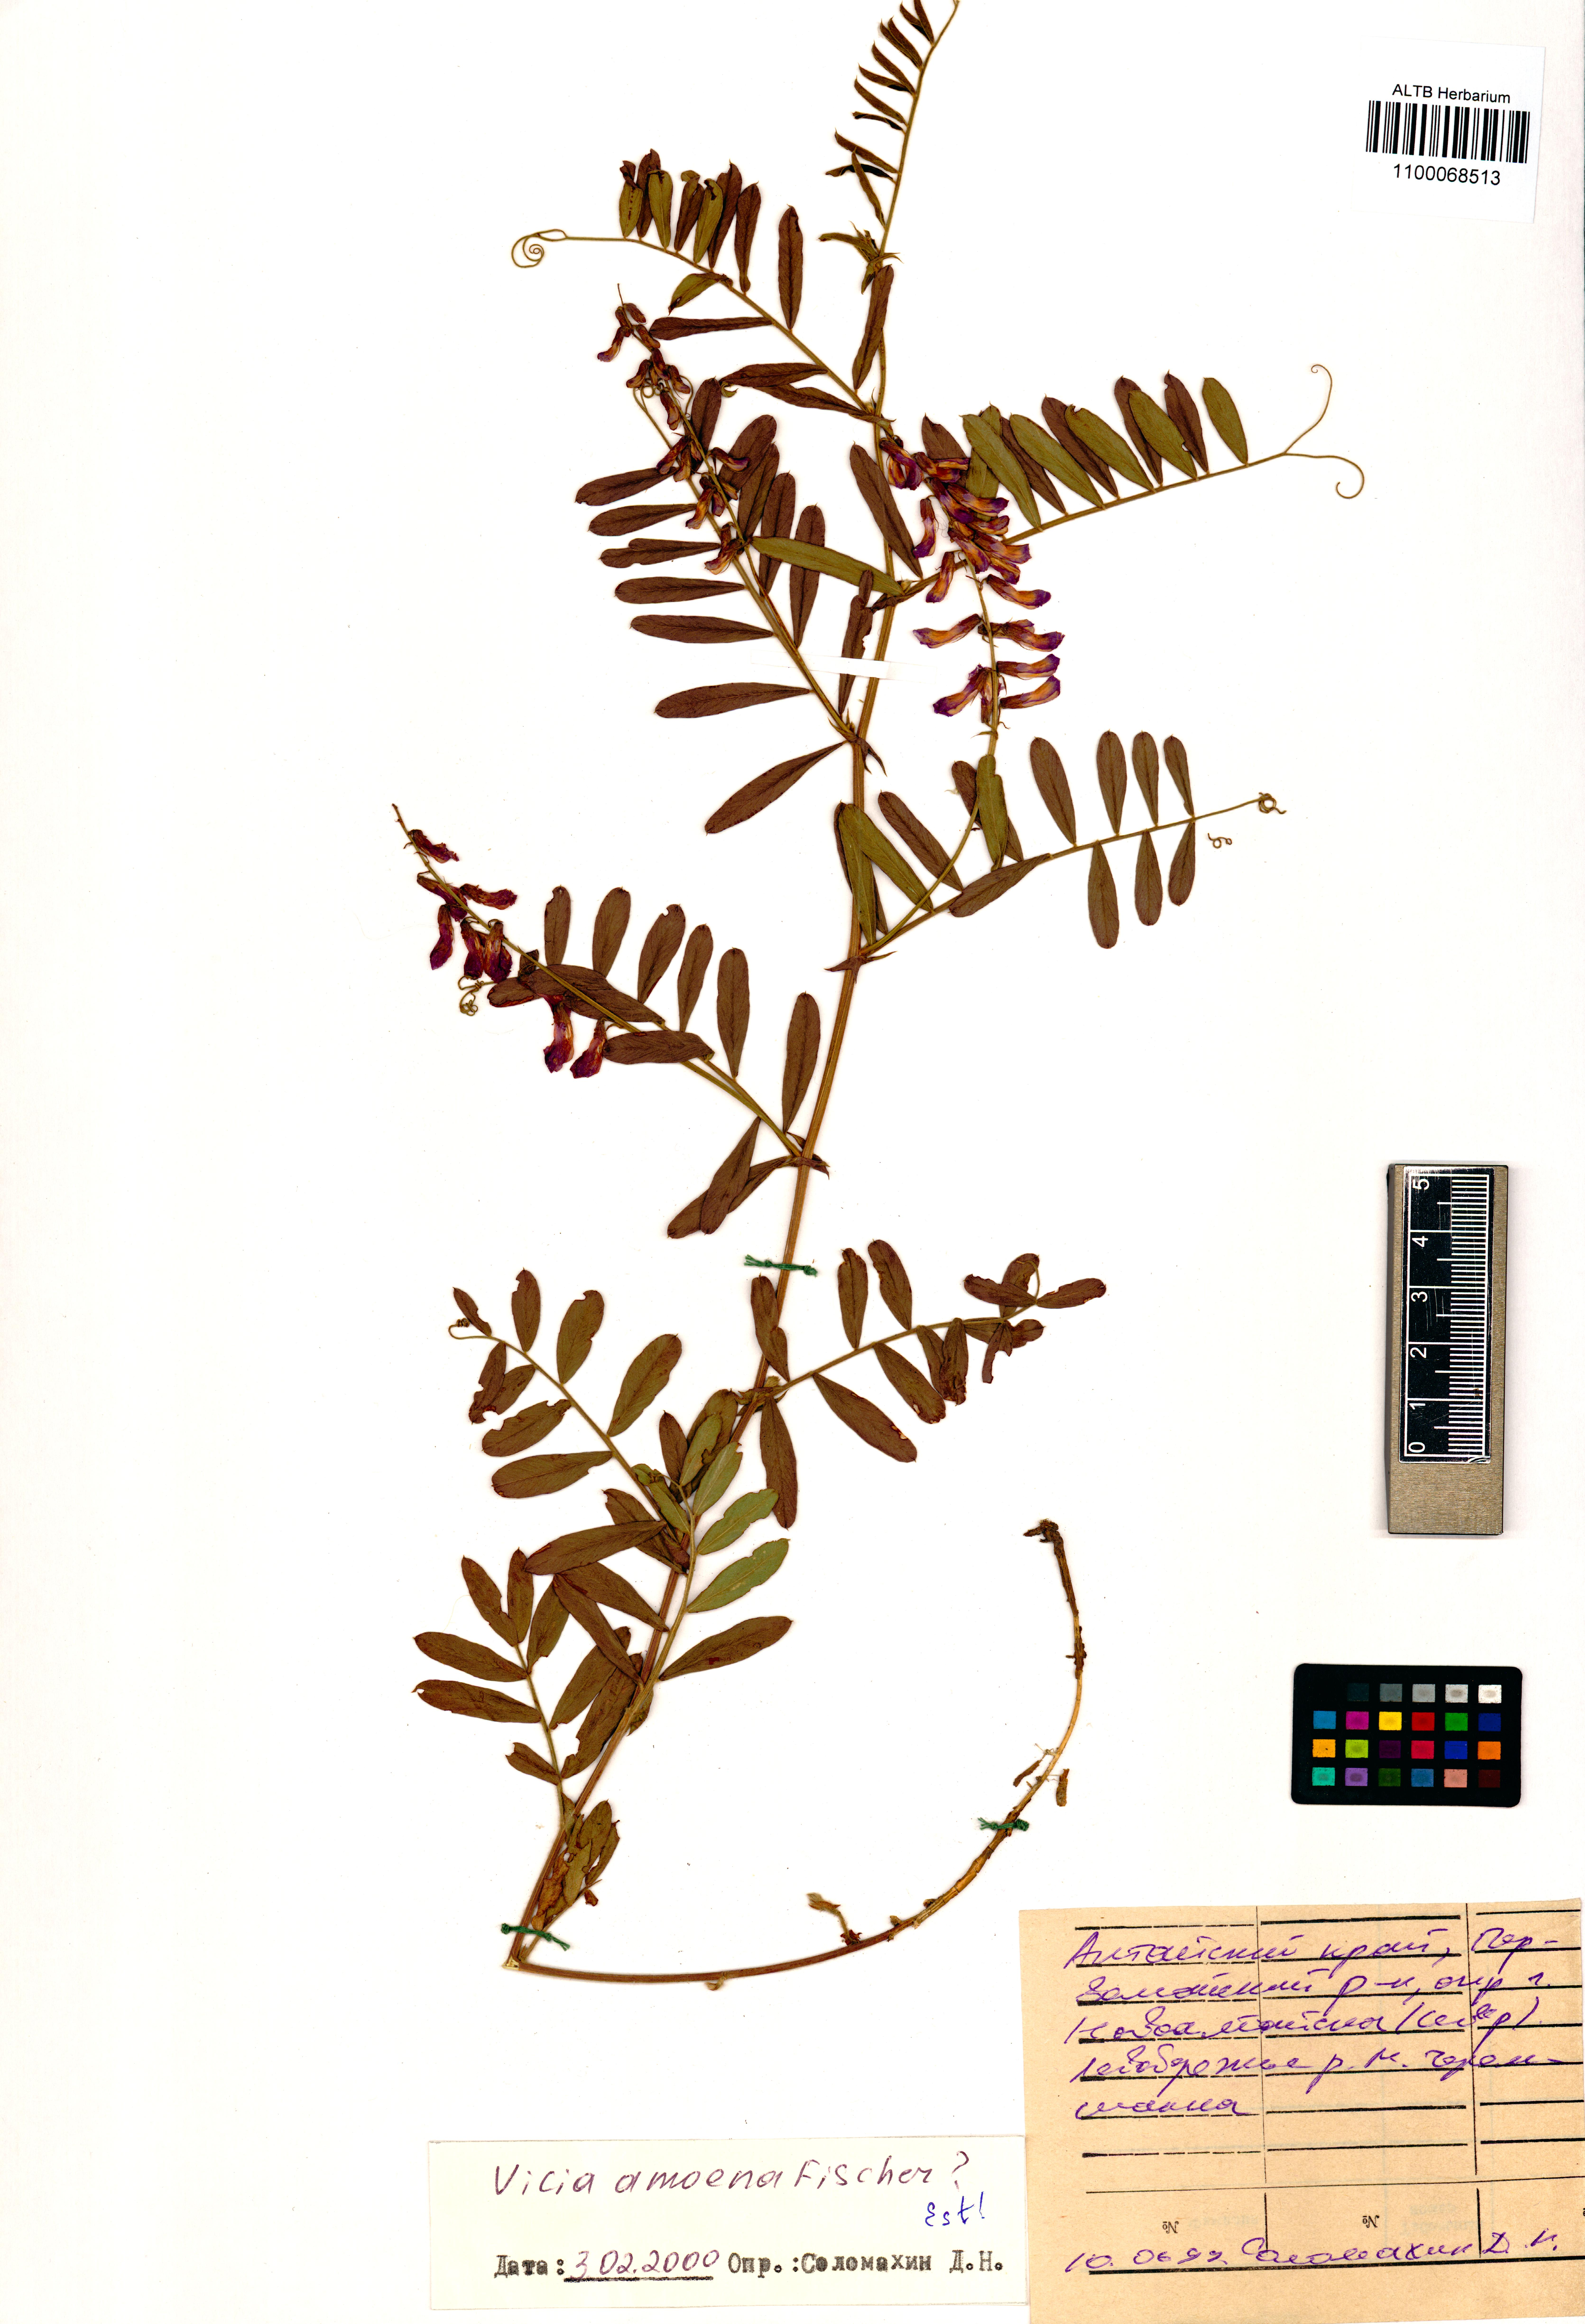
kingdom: Plantae
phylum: Tracheophyta
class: Magnoliopsida
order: Fabales
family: Fabaceae
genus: Vicia
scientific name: Vicia amoena
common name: Cheder ebs
